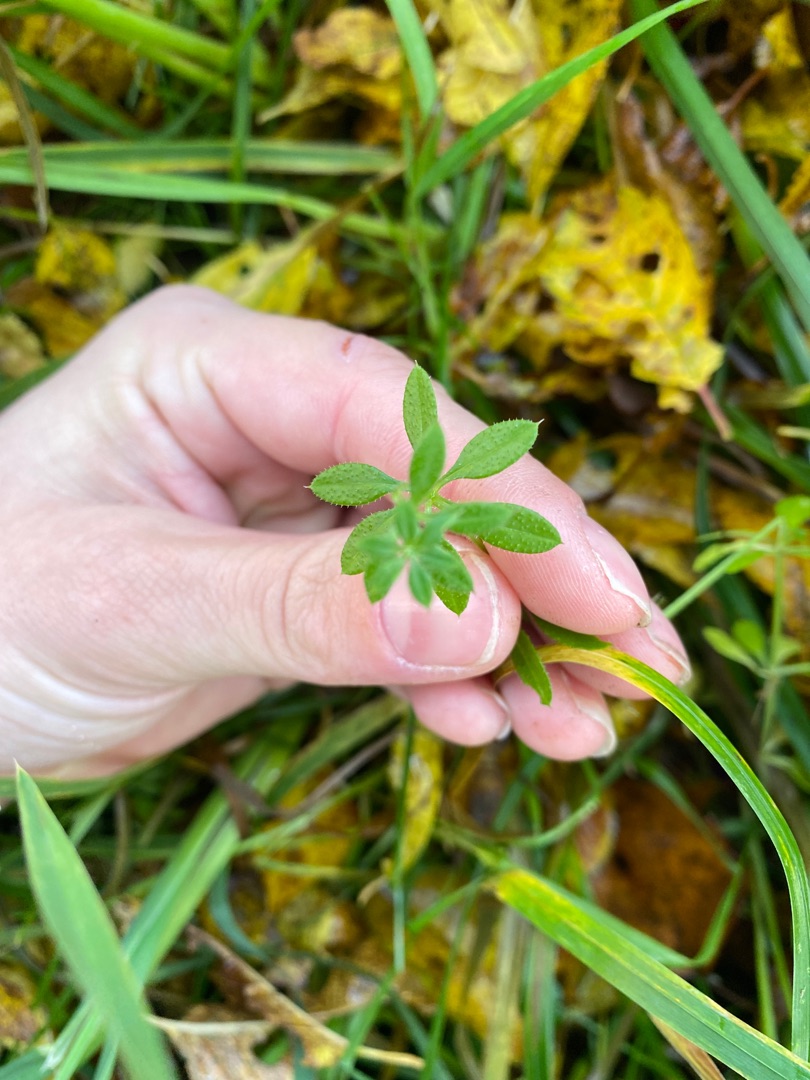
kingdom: Plantae
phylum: Tracheophyta
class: Magnoliopsida
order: Gentianales
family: Rubiaceae
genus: Galium
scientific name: Galium aparine
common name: Burre-snerre
